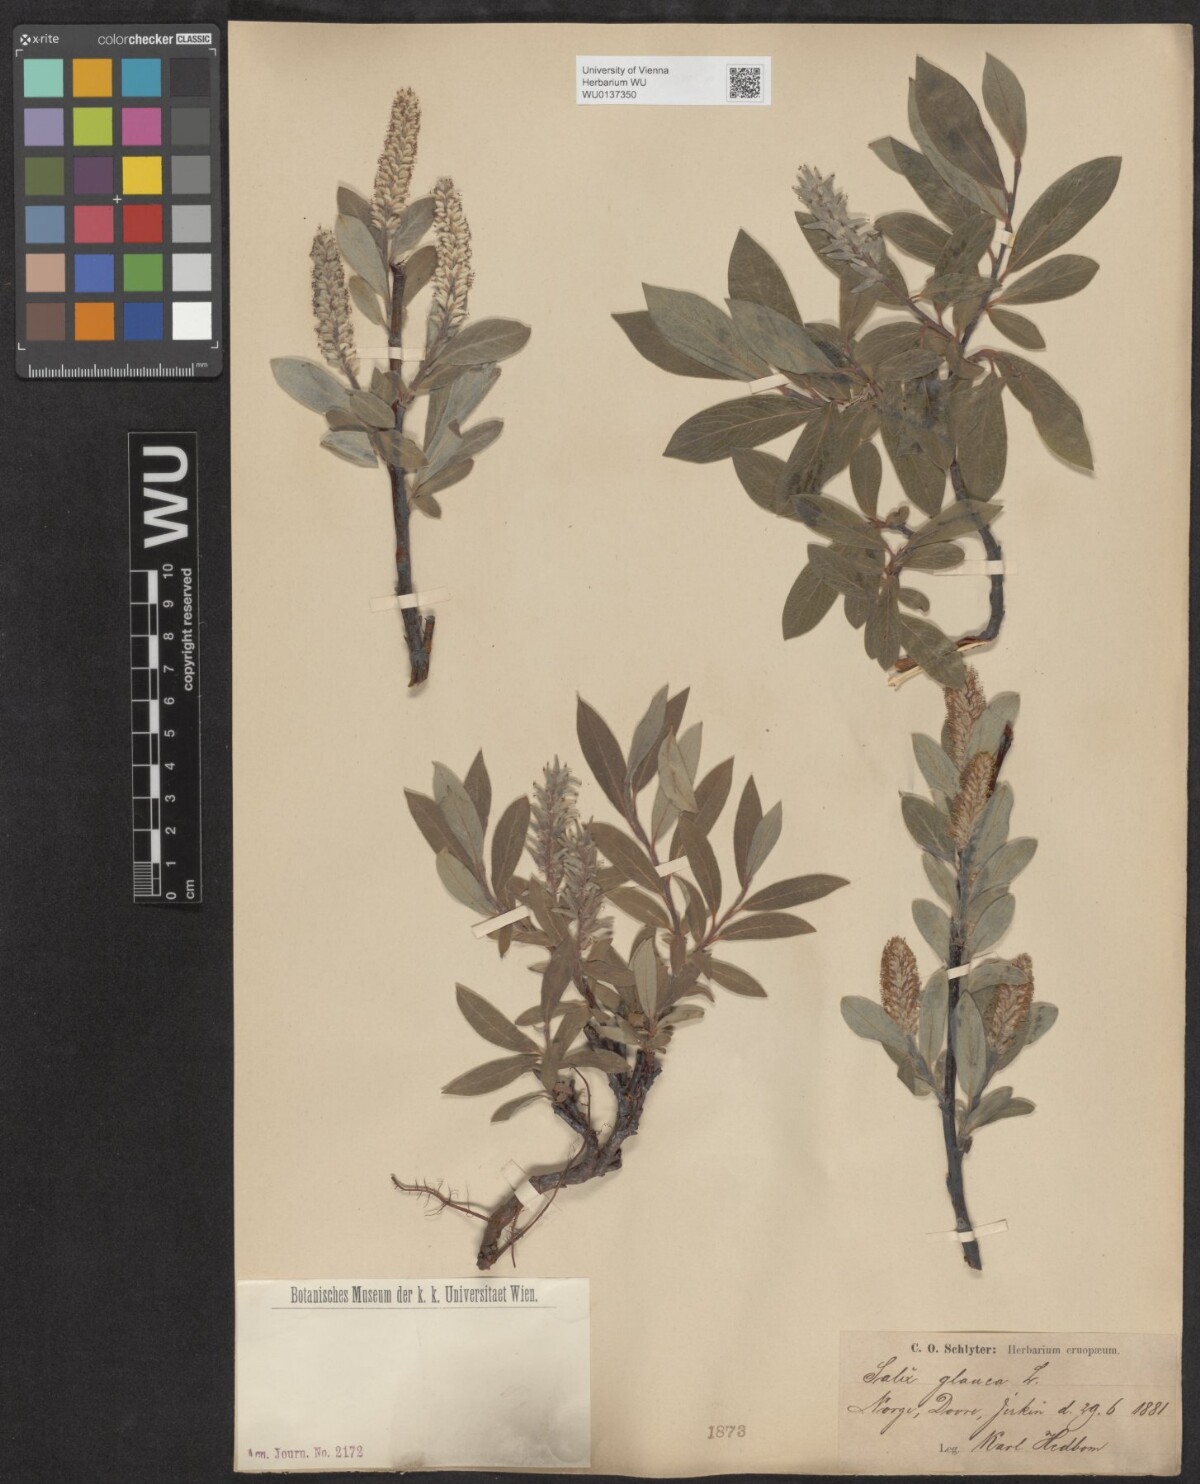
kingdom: Plantae
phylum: Tracheophyta
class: Magnoliopsida
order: Malpighiales
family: Salicaceae
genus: Salix
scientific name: Salix glauca
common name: Glaucous willow
